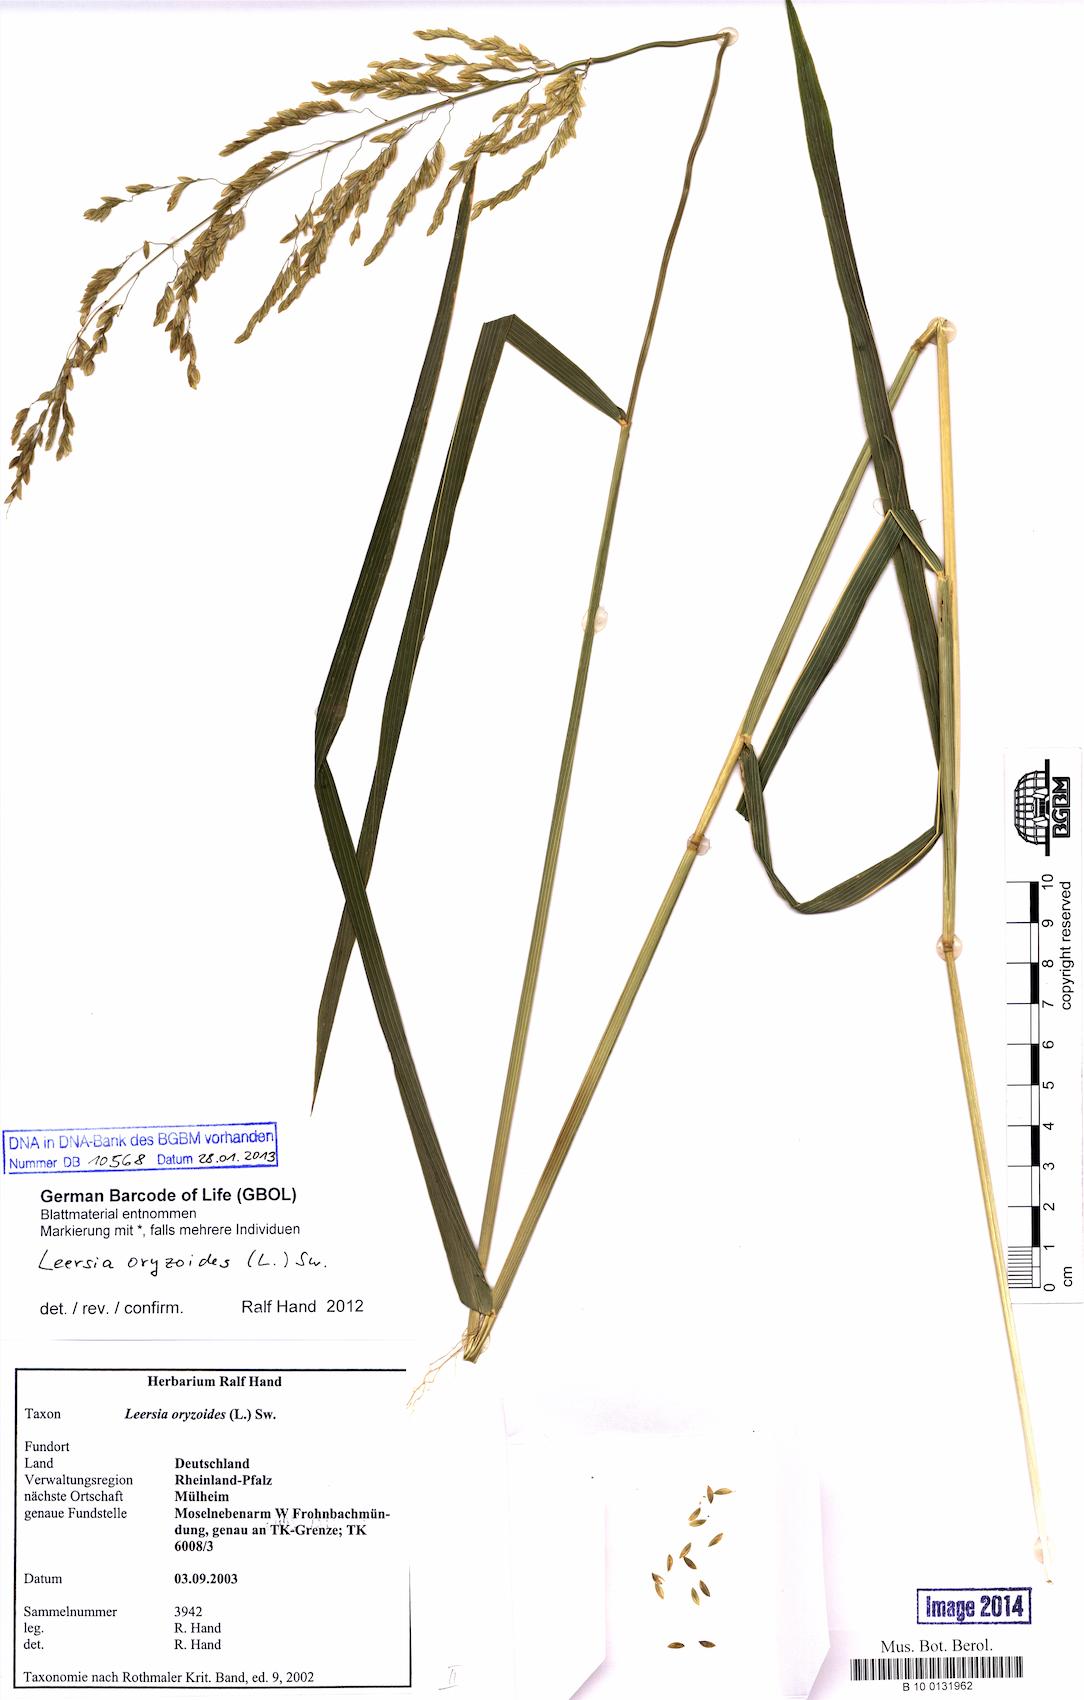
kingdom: Plantae
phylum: Tracheophyta
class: Liliopsida
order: Poales
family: Poaceae
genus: Leersia
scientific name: Leersia oryzoides
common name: Cut-grass
